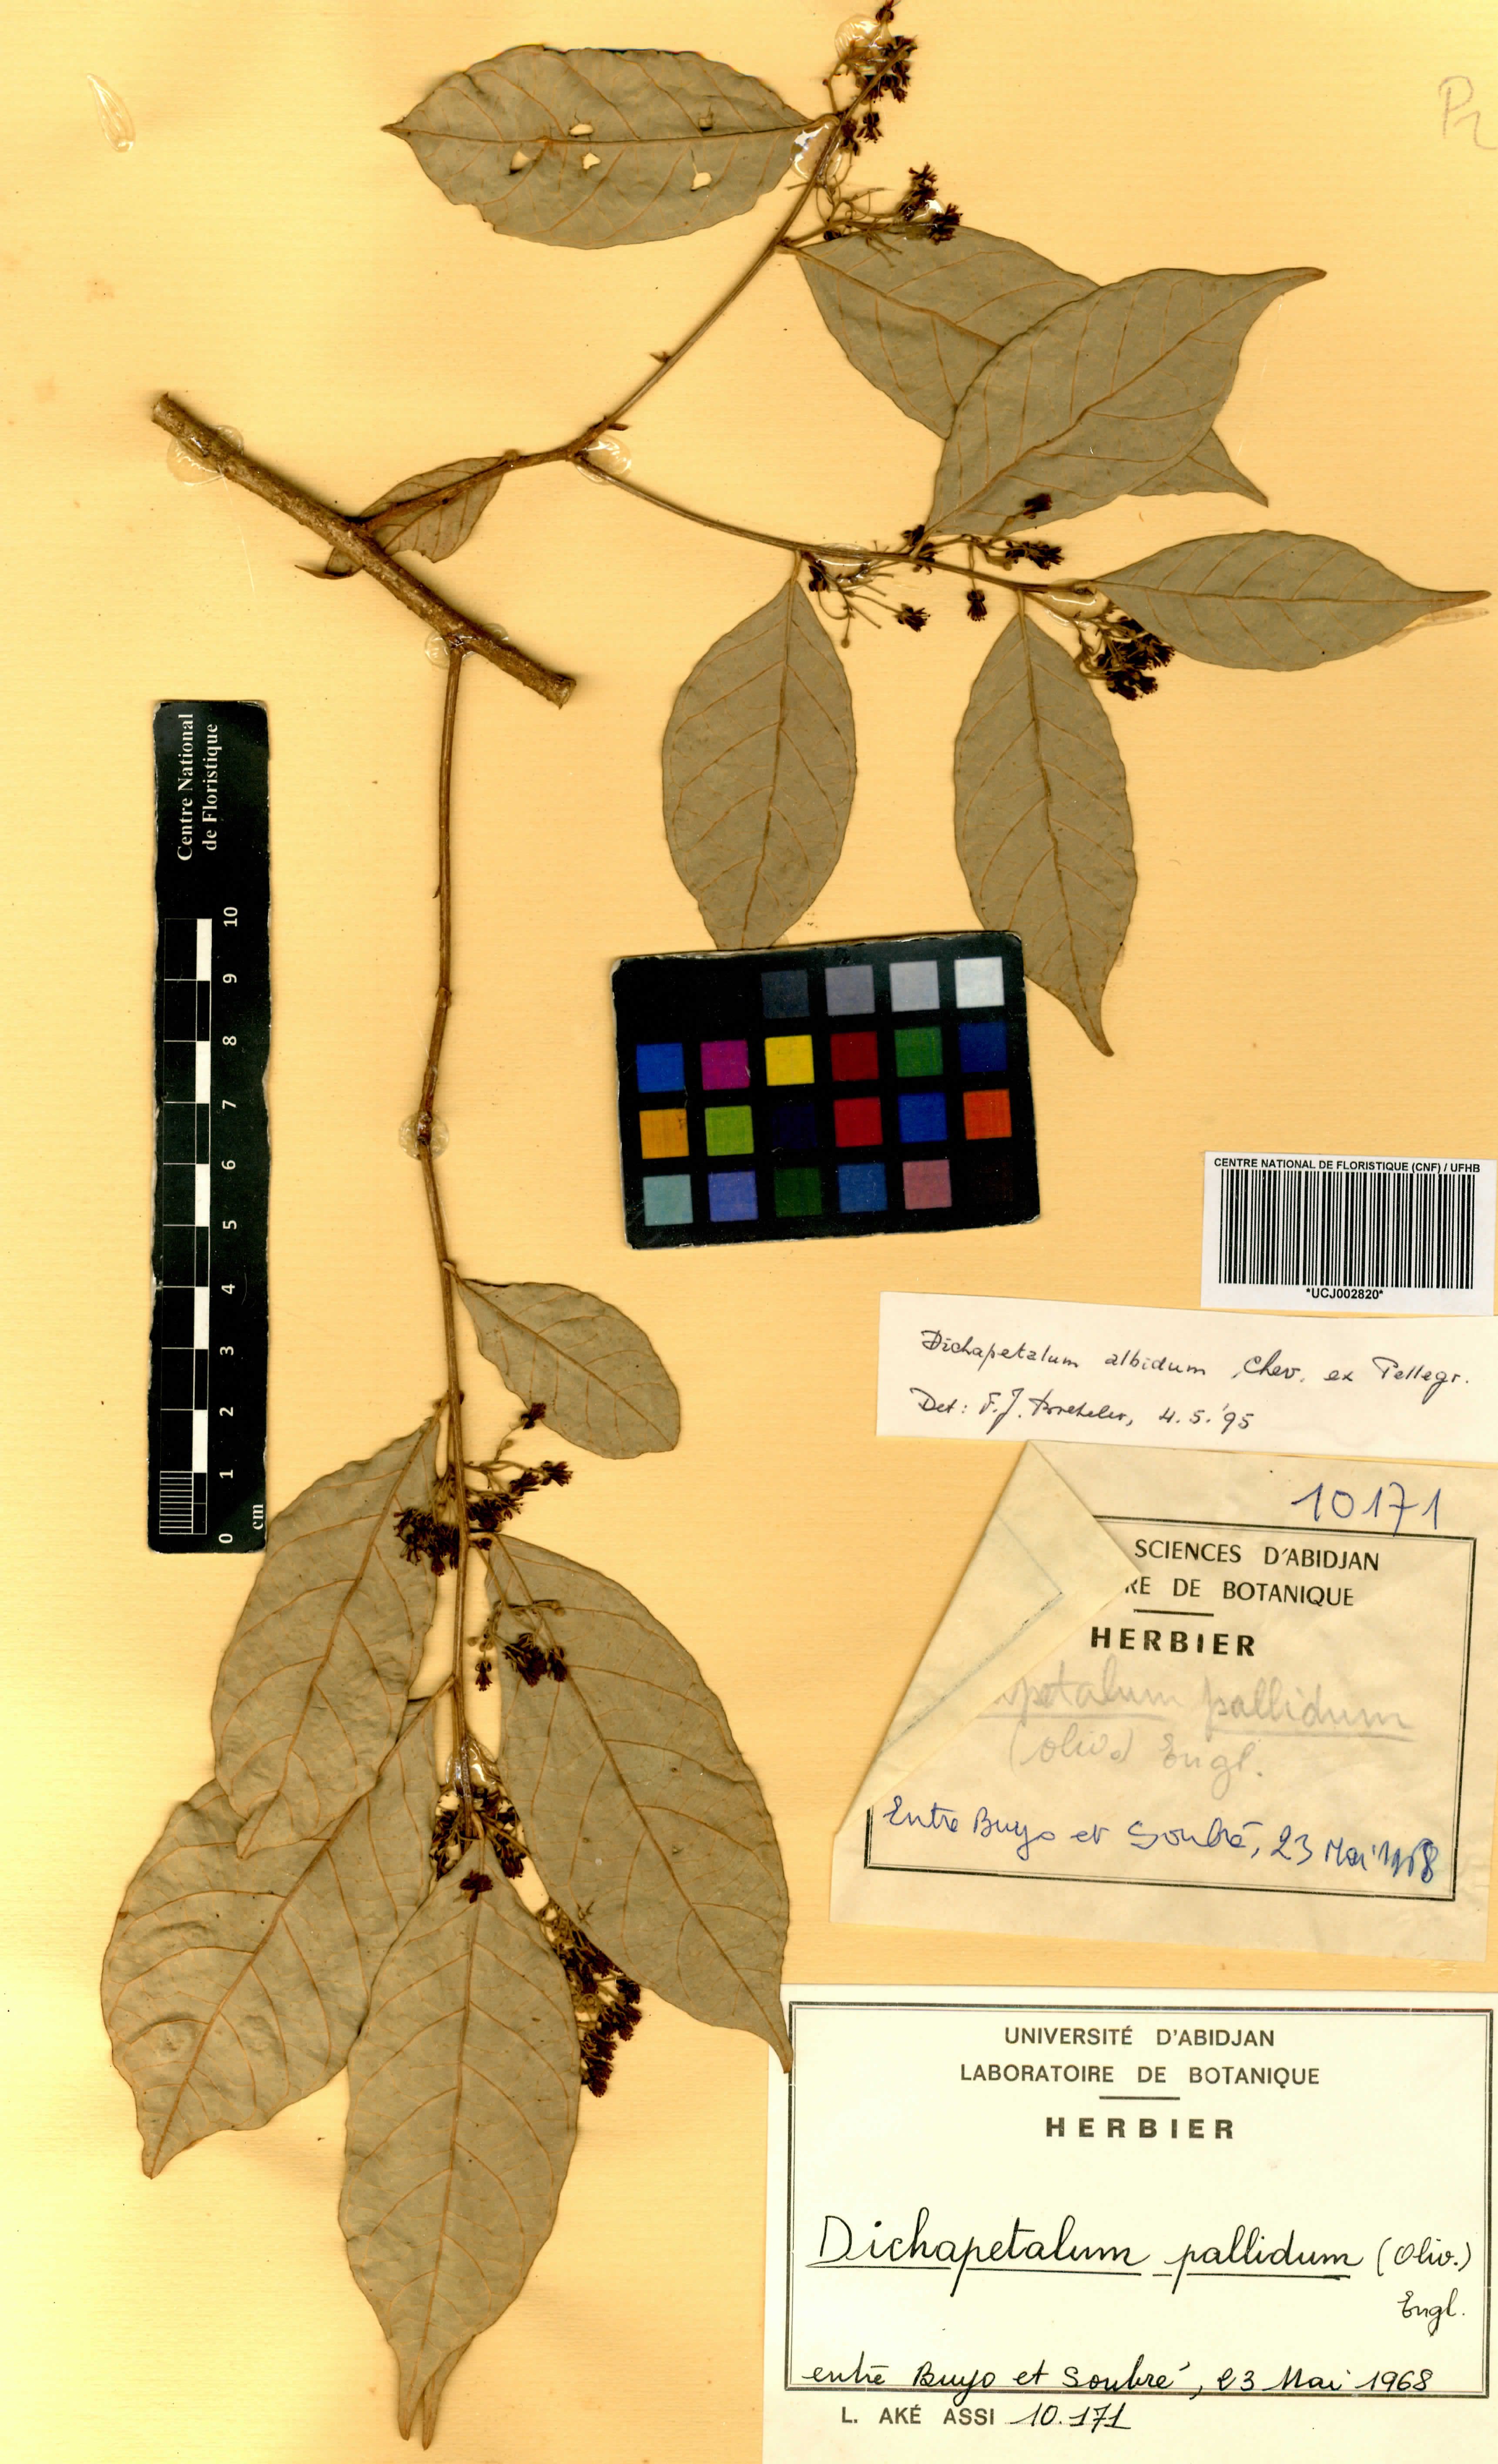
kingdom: Plantae
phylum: Tracheophyta
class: Magnoliopsida
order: Malpighiales
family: Dichapetalaceae
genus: Dichapetalum
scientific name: Dichapetalum pallidum
